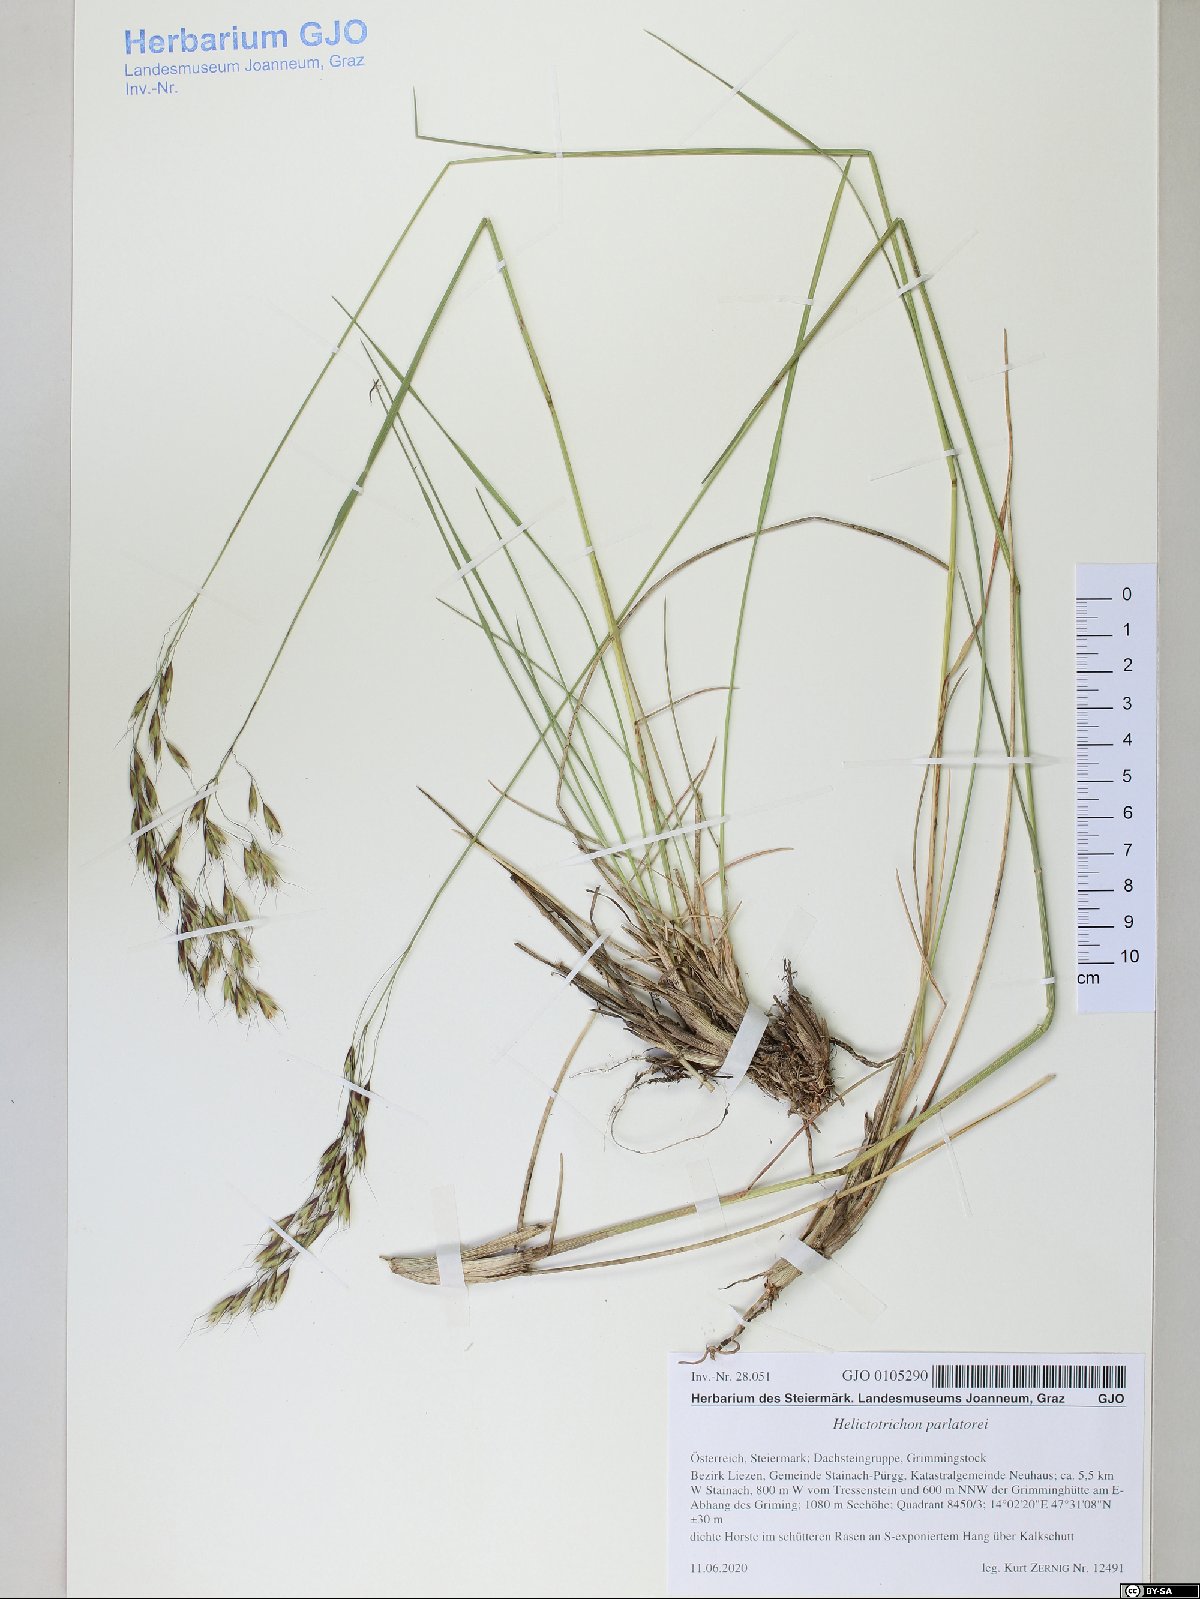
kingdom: Plantae
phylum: Tracheophyta
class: Liliopsida
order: Poales
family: Poaceae
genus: Helictotrichon
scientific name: Helictotrichon parlatorei
